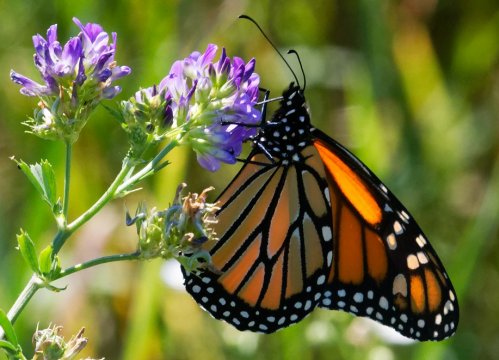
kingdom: Animalia
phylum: Arthropoda
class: Insecta
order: Lepidoptera
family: Nymphalidae
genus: Danaus
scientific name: Danaus plexippus
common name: Monarch
